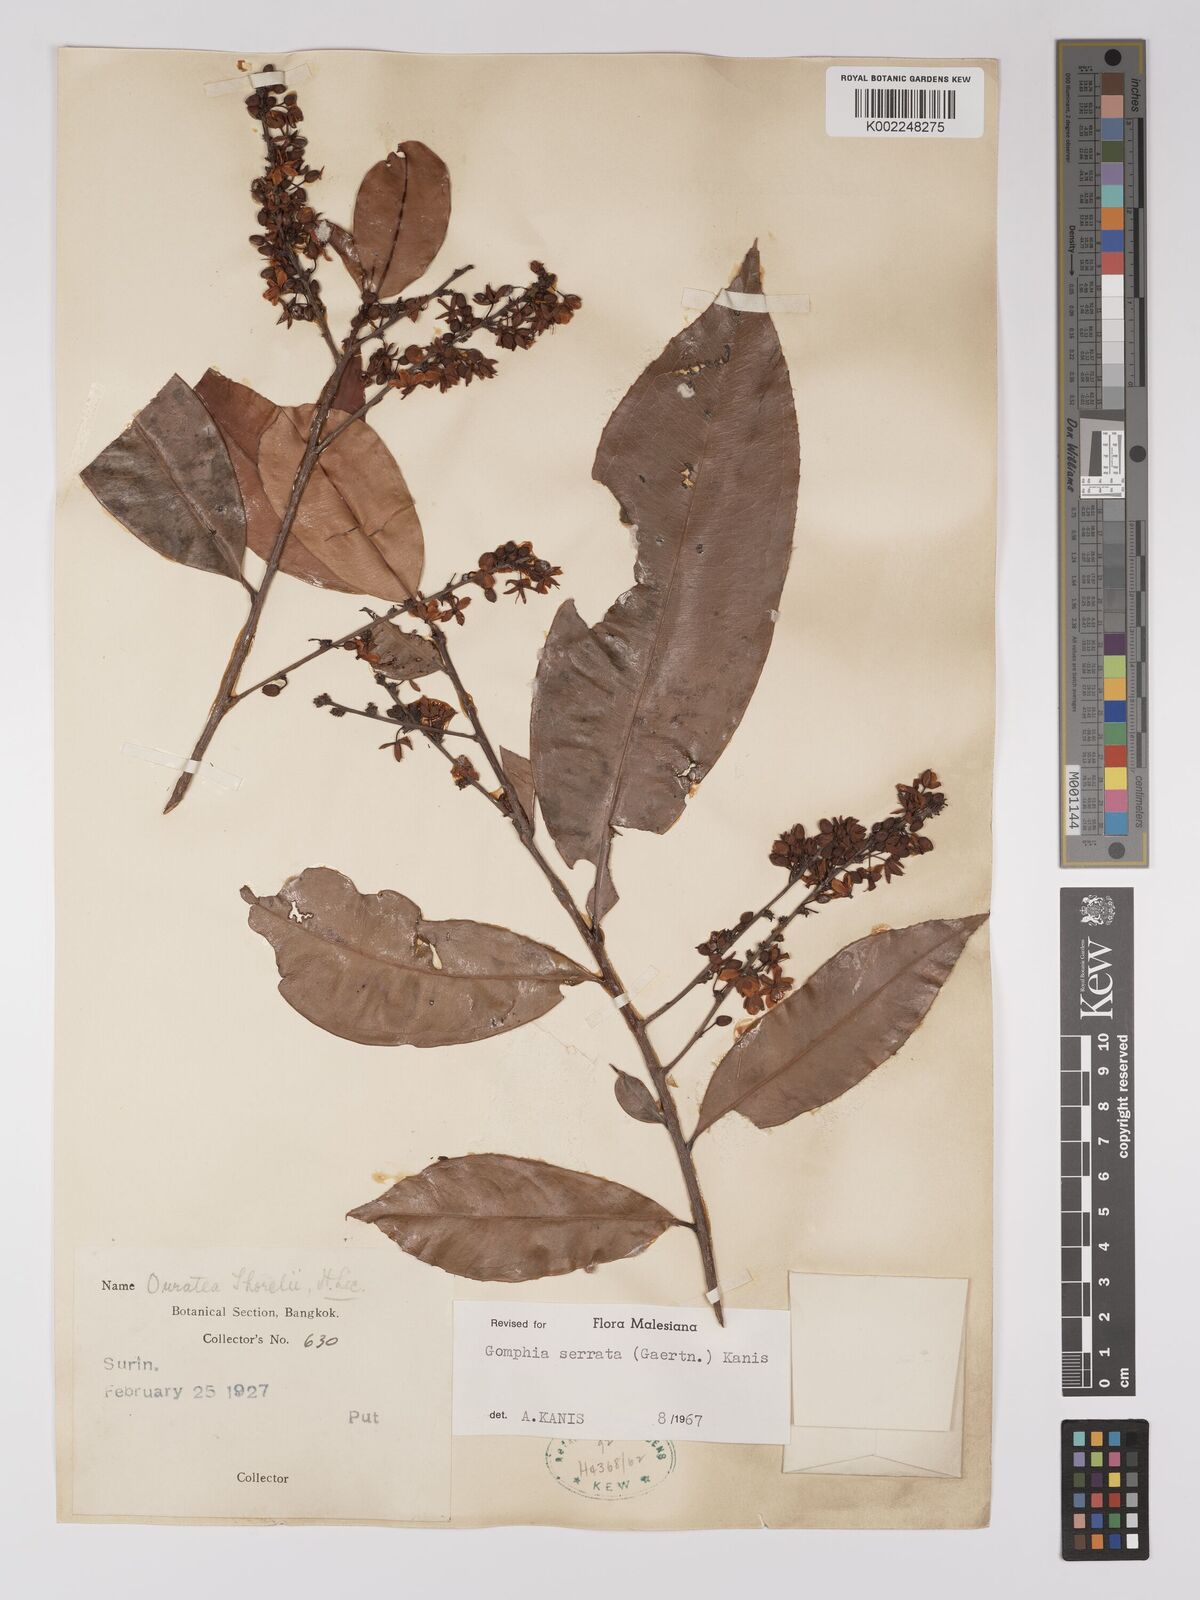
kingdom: Plantae
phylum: Tracheophyta
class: Magnoliopsida
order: Malpighiales
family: Ochnaceae
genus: Gomphia
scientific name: Gomphia serrata
